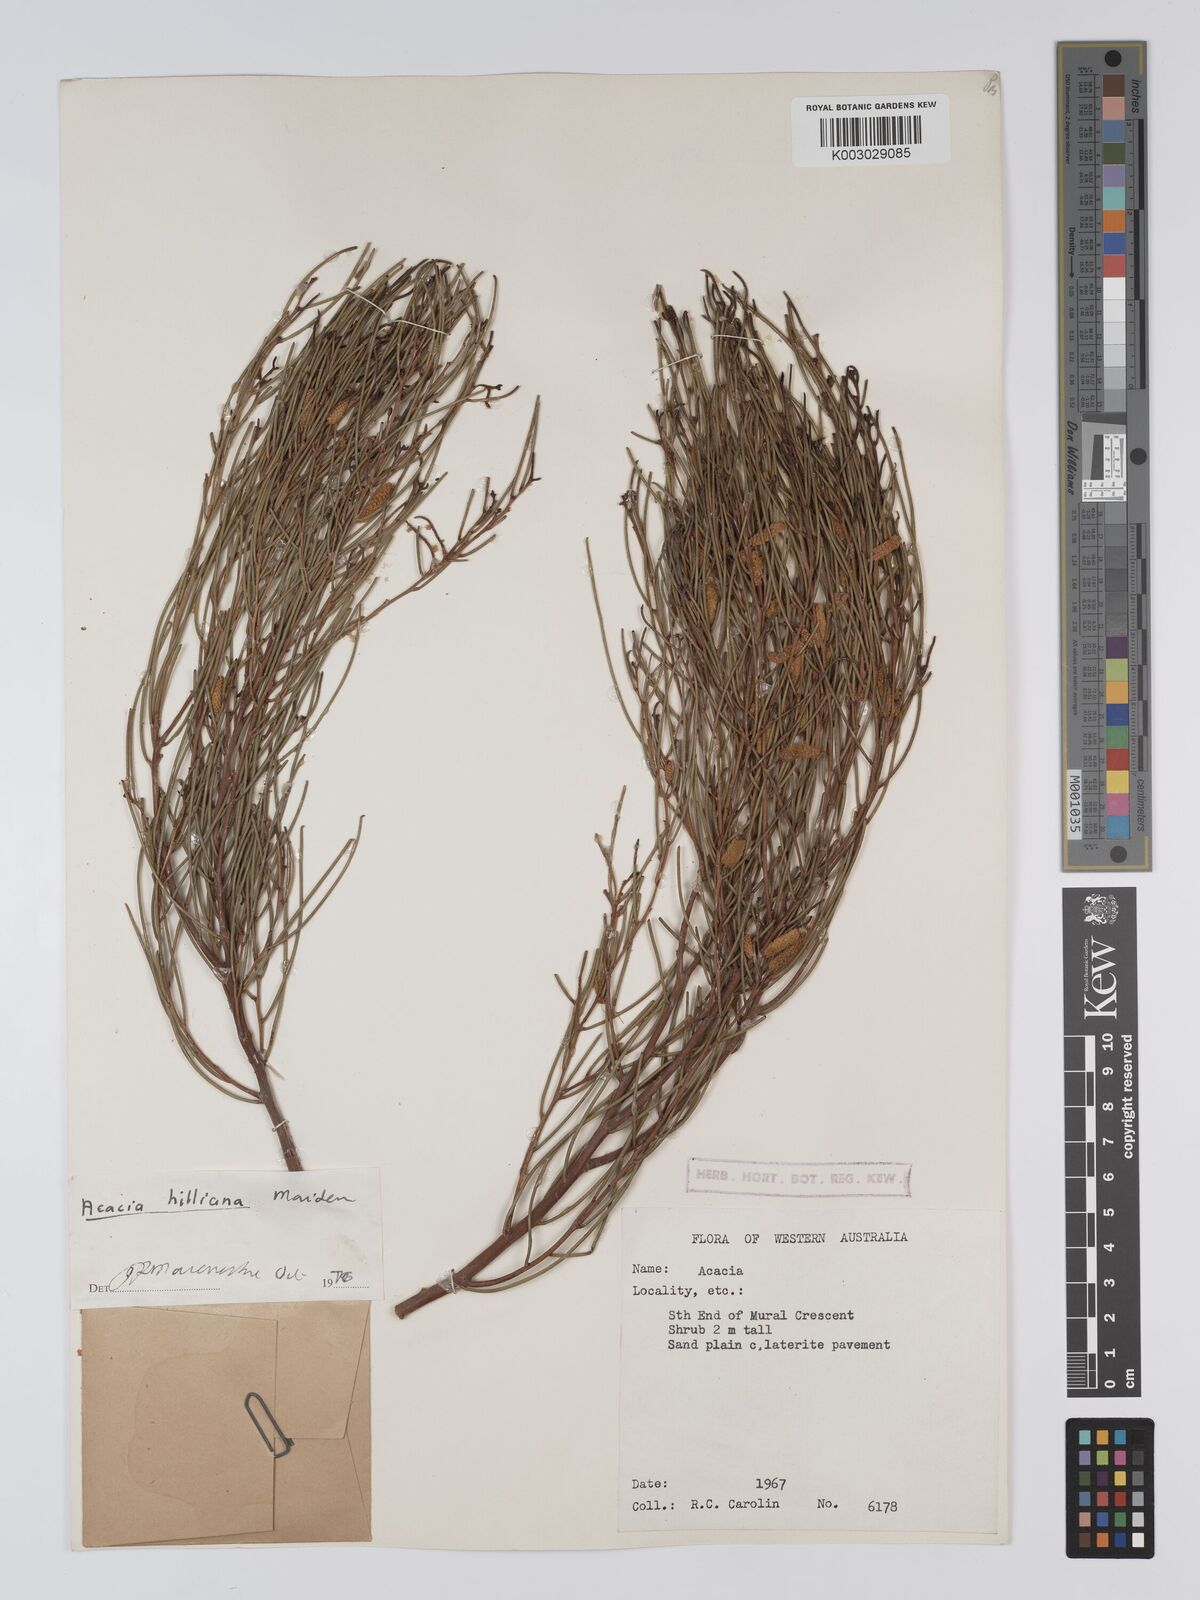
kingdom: Plantae
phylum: Tracheophyta
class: Magnoliopsida
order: Fabales
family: Fabaceae
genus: Acacia
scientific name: Acacia tenuissima
